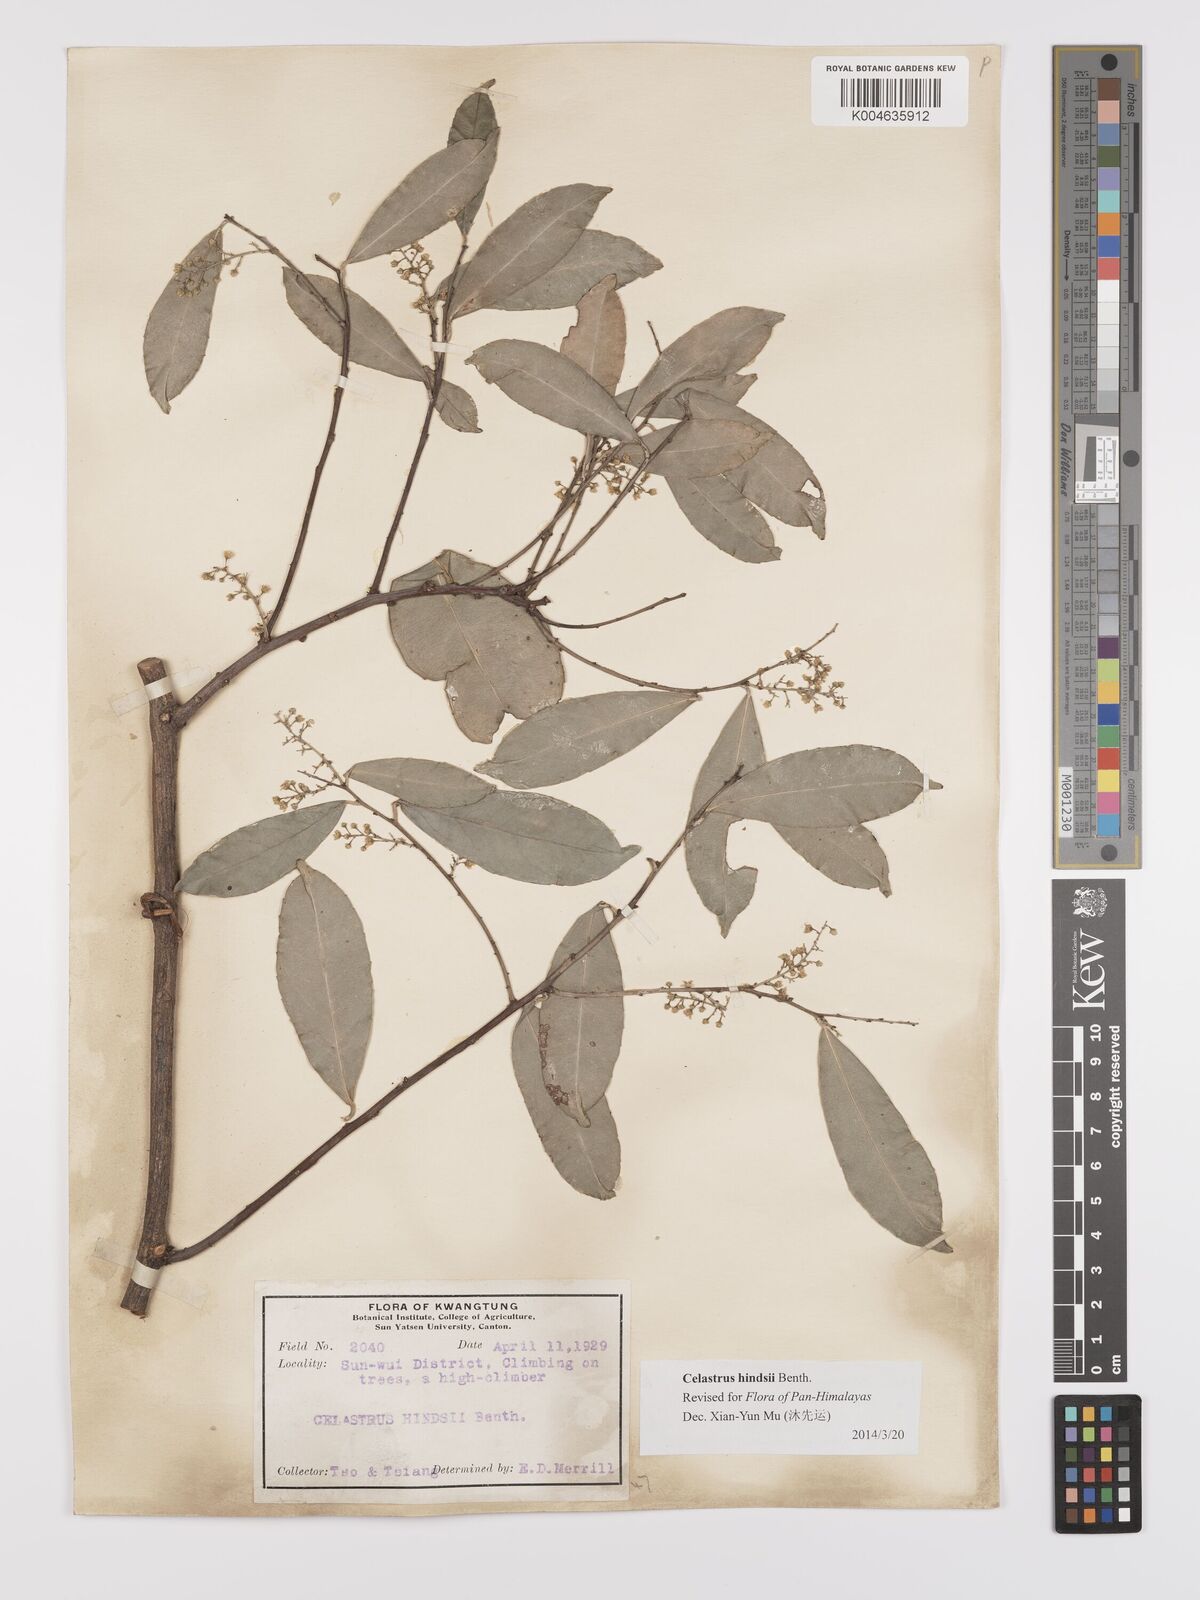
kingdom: Plantae
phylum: Tracheophyta
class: Magnoliopsida
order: Celastrales
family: Celastraceae
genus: Celastrus
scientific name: Celastrus hindsii
